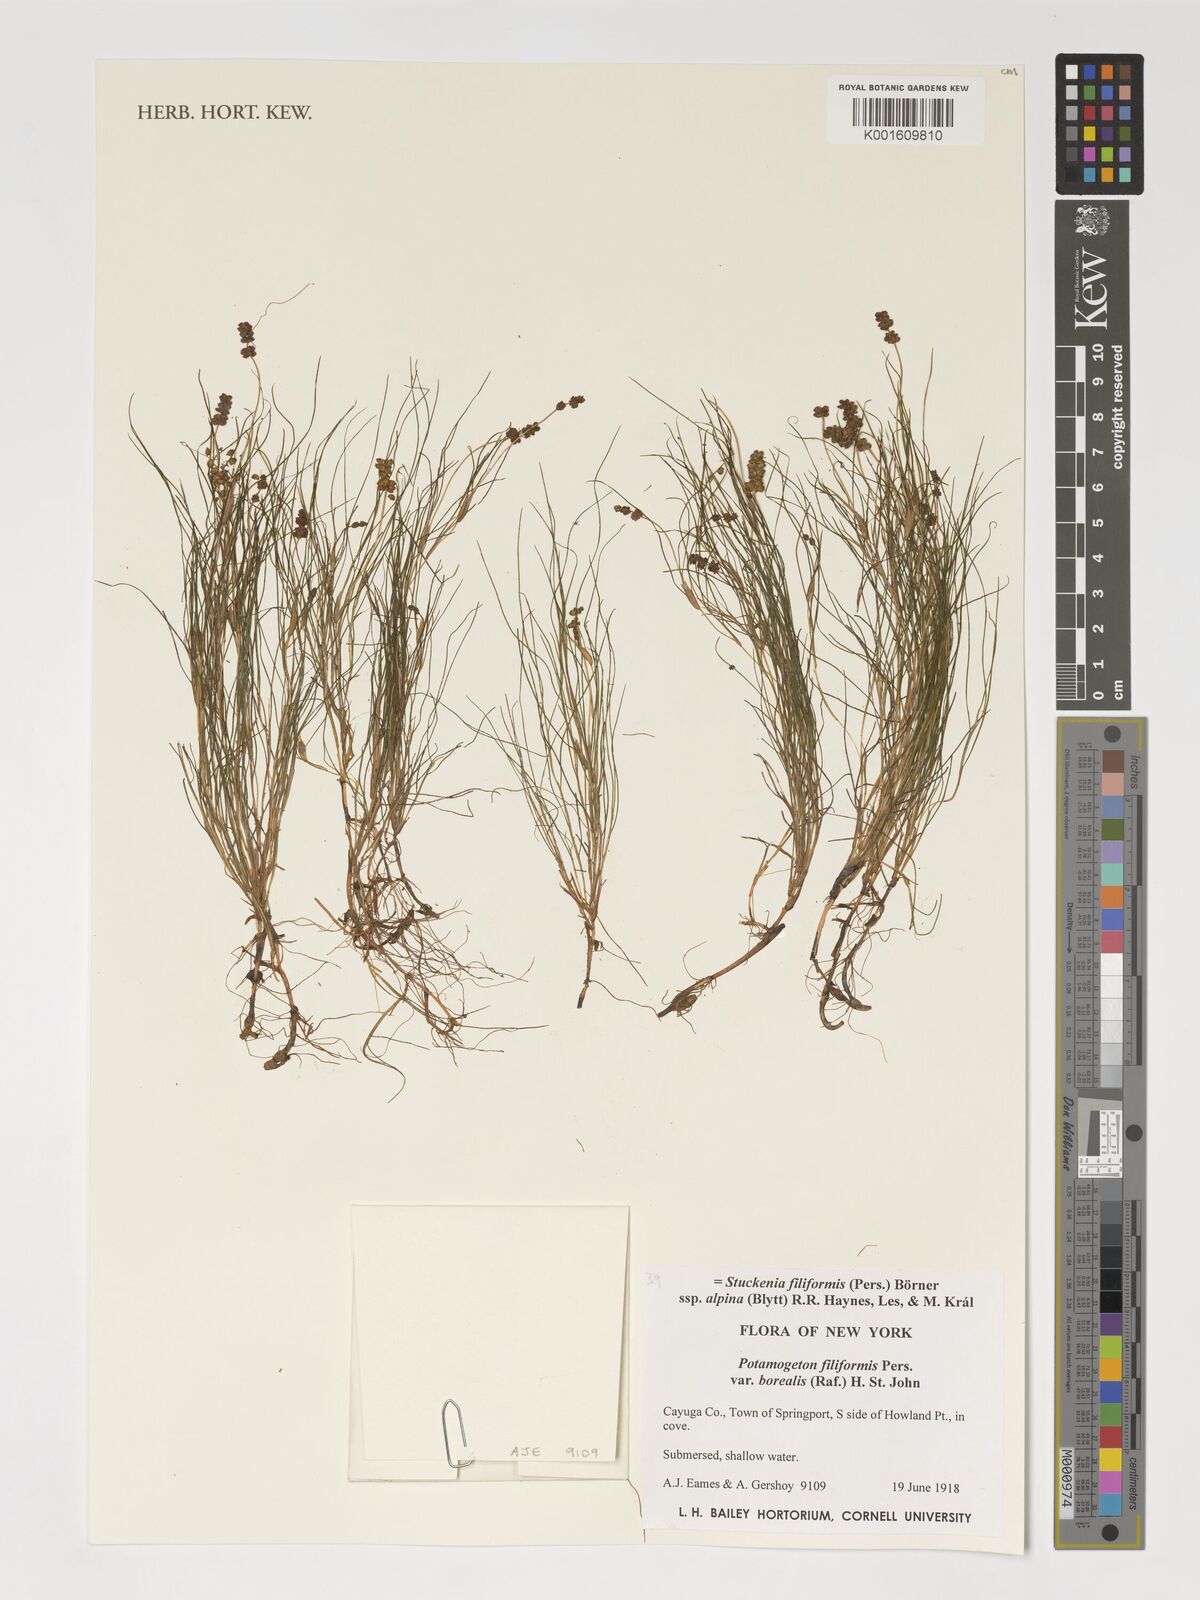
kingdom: Plantae
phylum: Tracheophyta
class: Liliopsida
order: Alismatales
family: Potamogetonaceae
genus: Stuckenia
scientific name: Stuckenia filiformis
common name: Alpine thread-leaved pondweed
